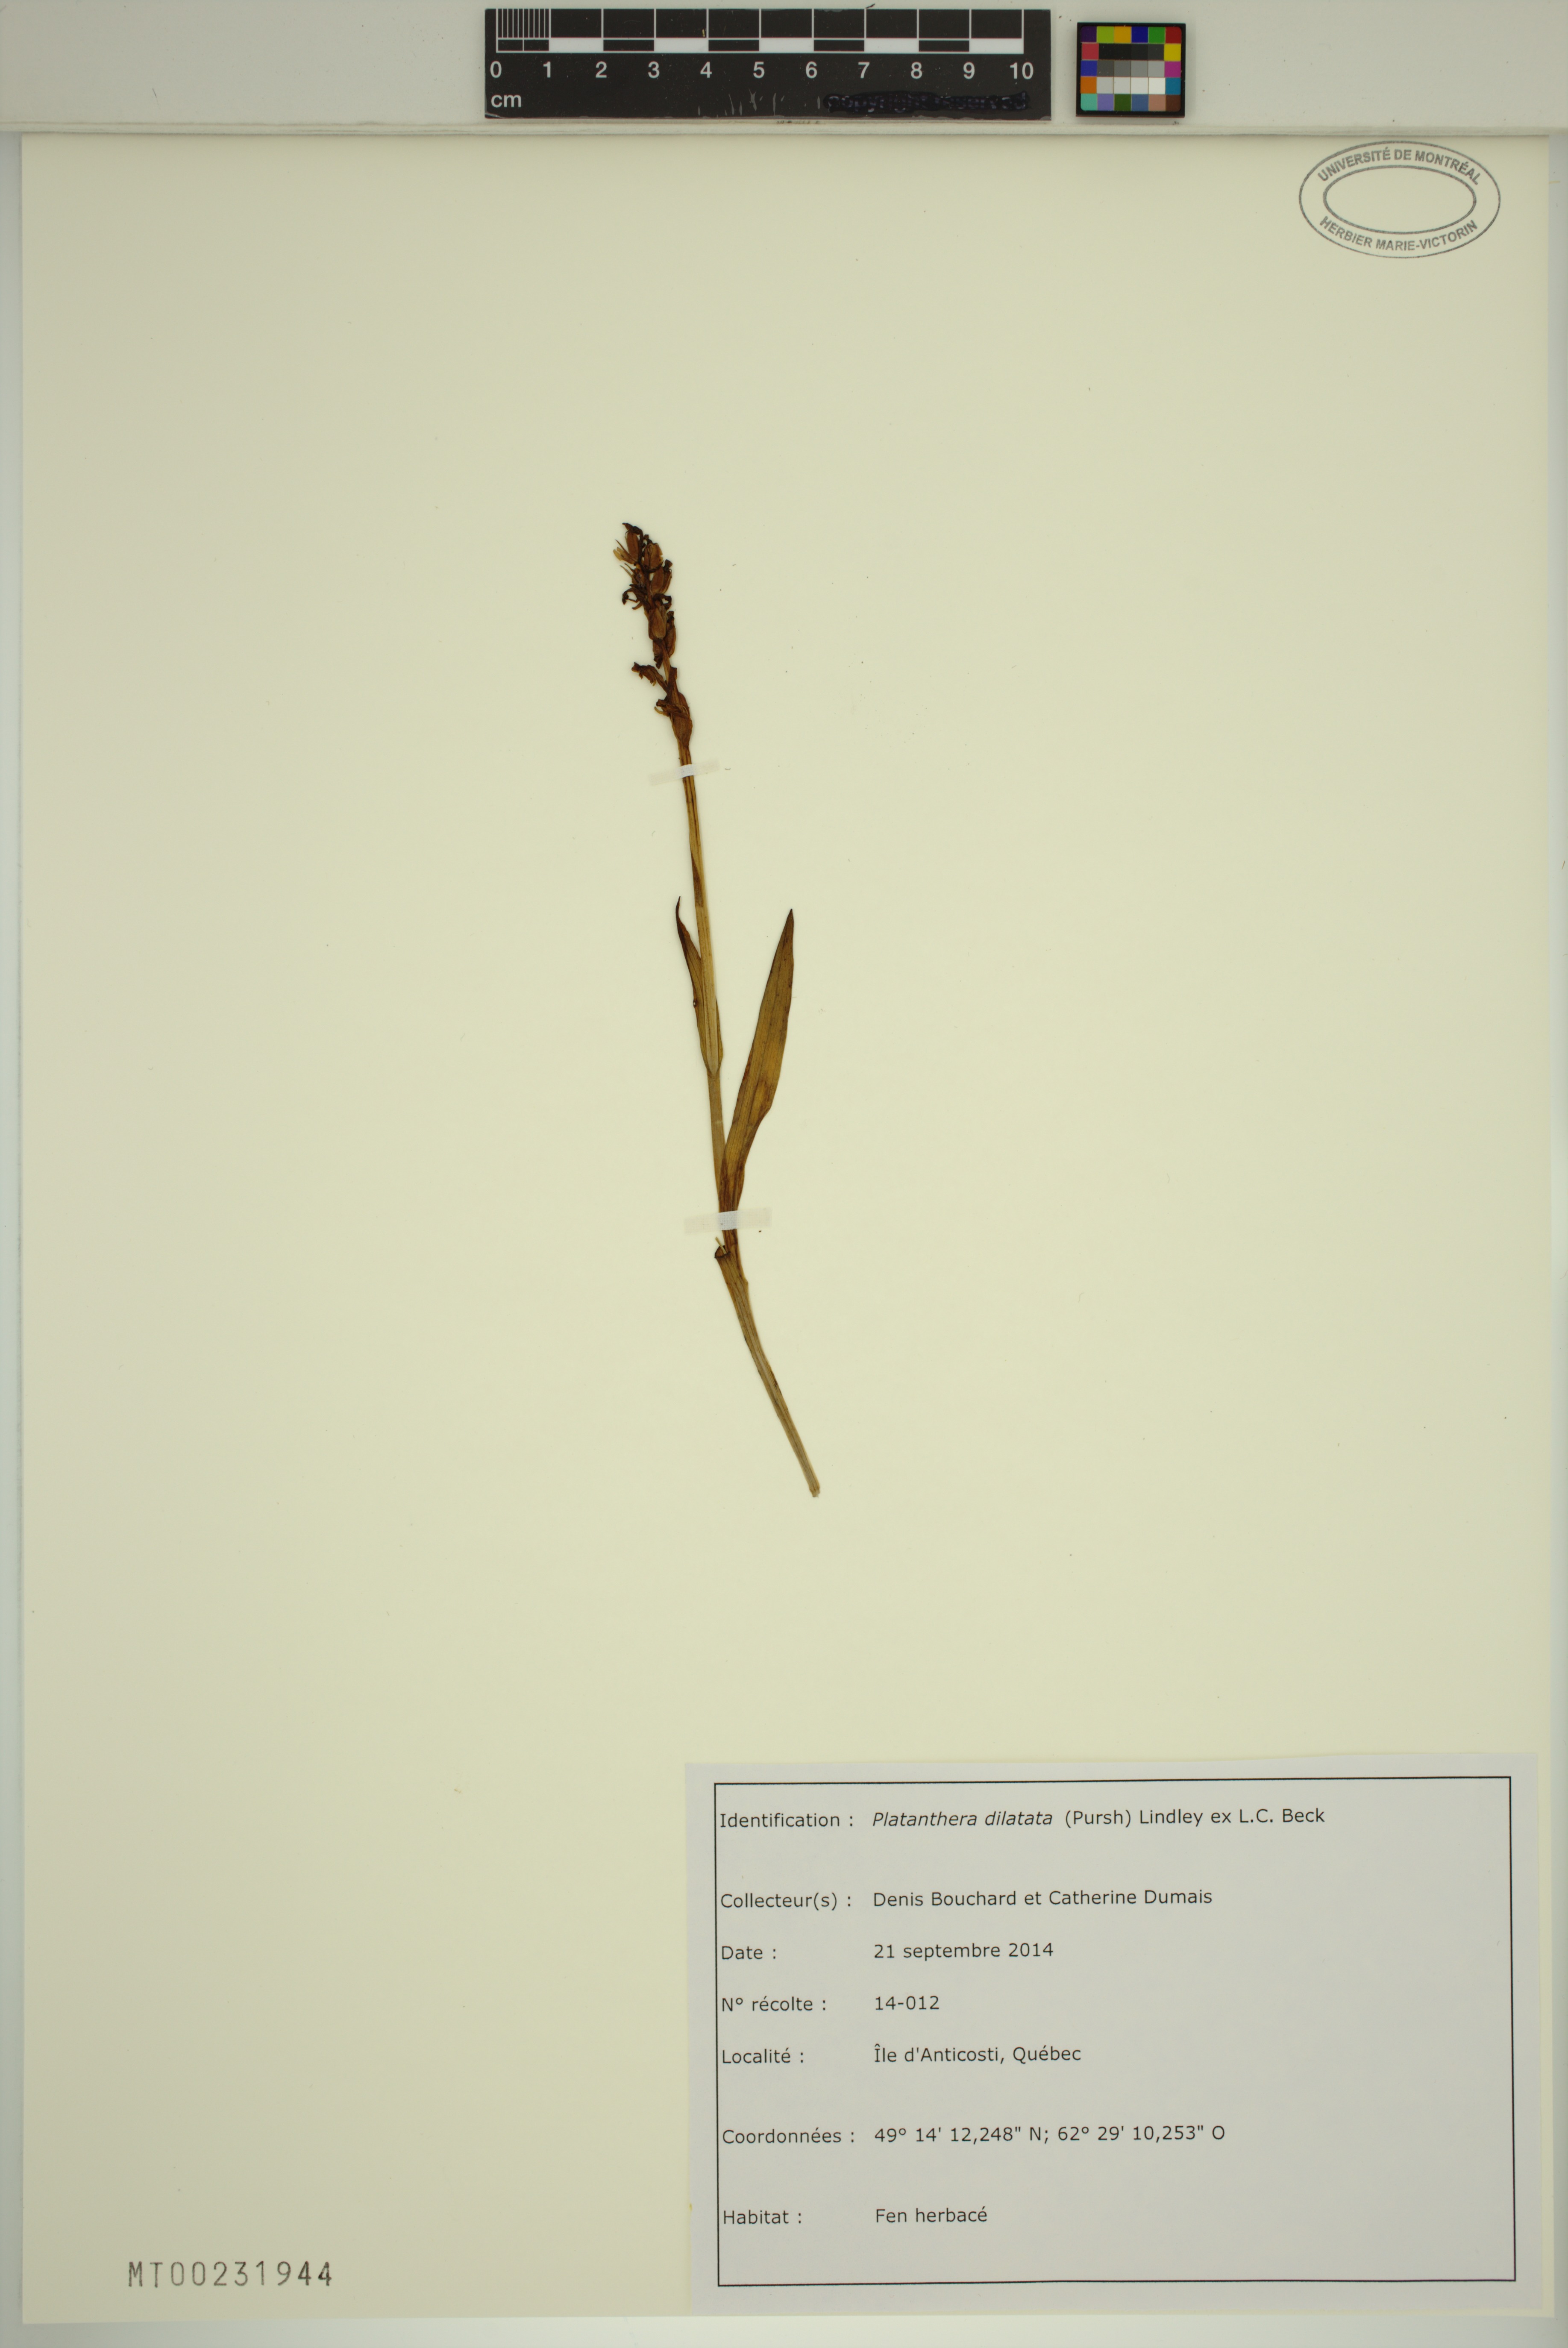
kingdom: Plantae
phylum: Tracheophyta
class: Liliopsida
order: Asparagales
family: Orchidaceae
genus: Platanthera
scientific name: Platanthera dilatata
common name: Bog candles
